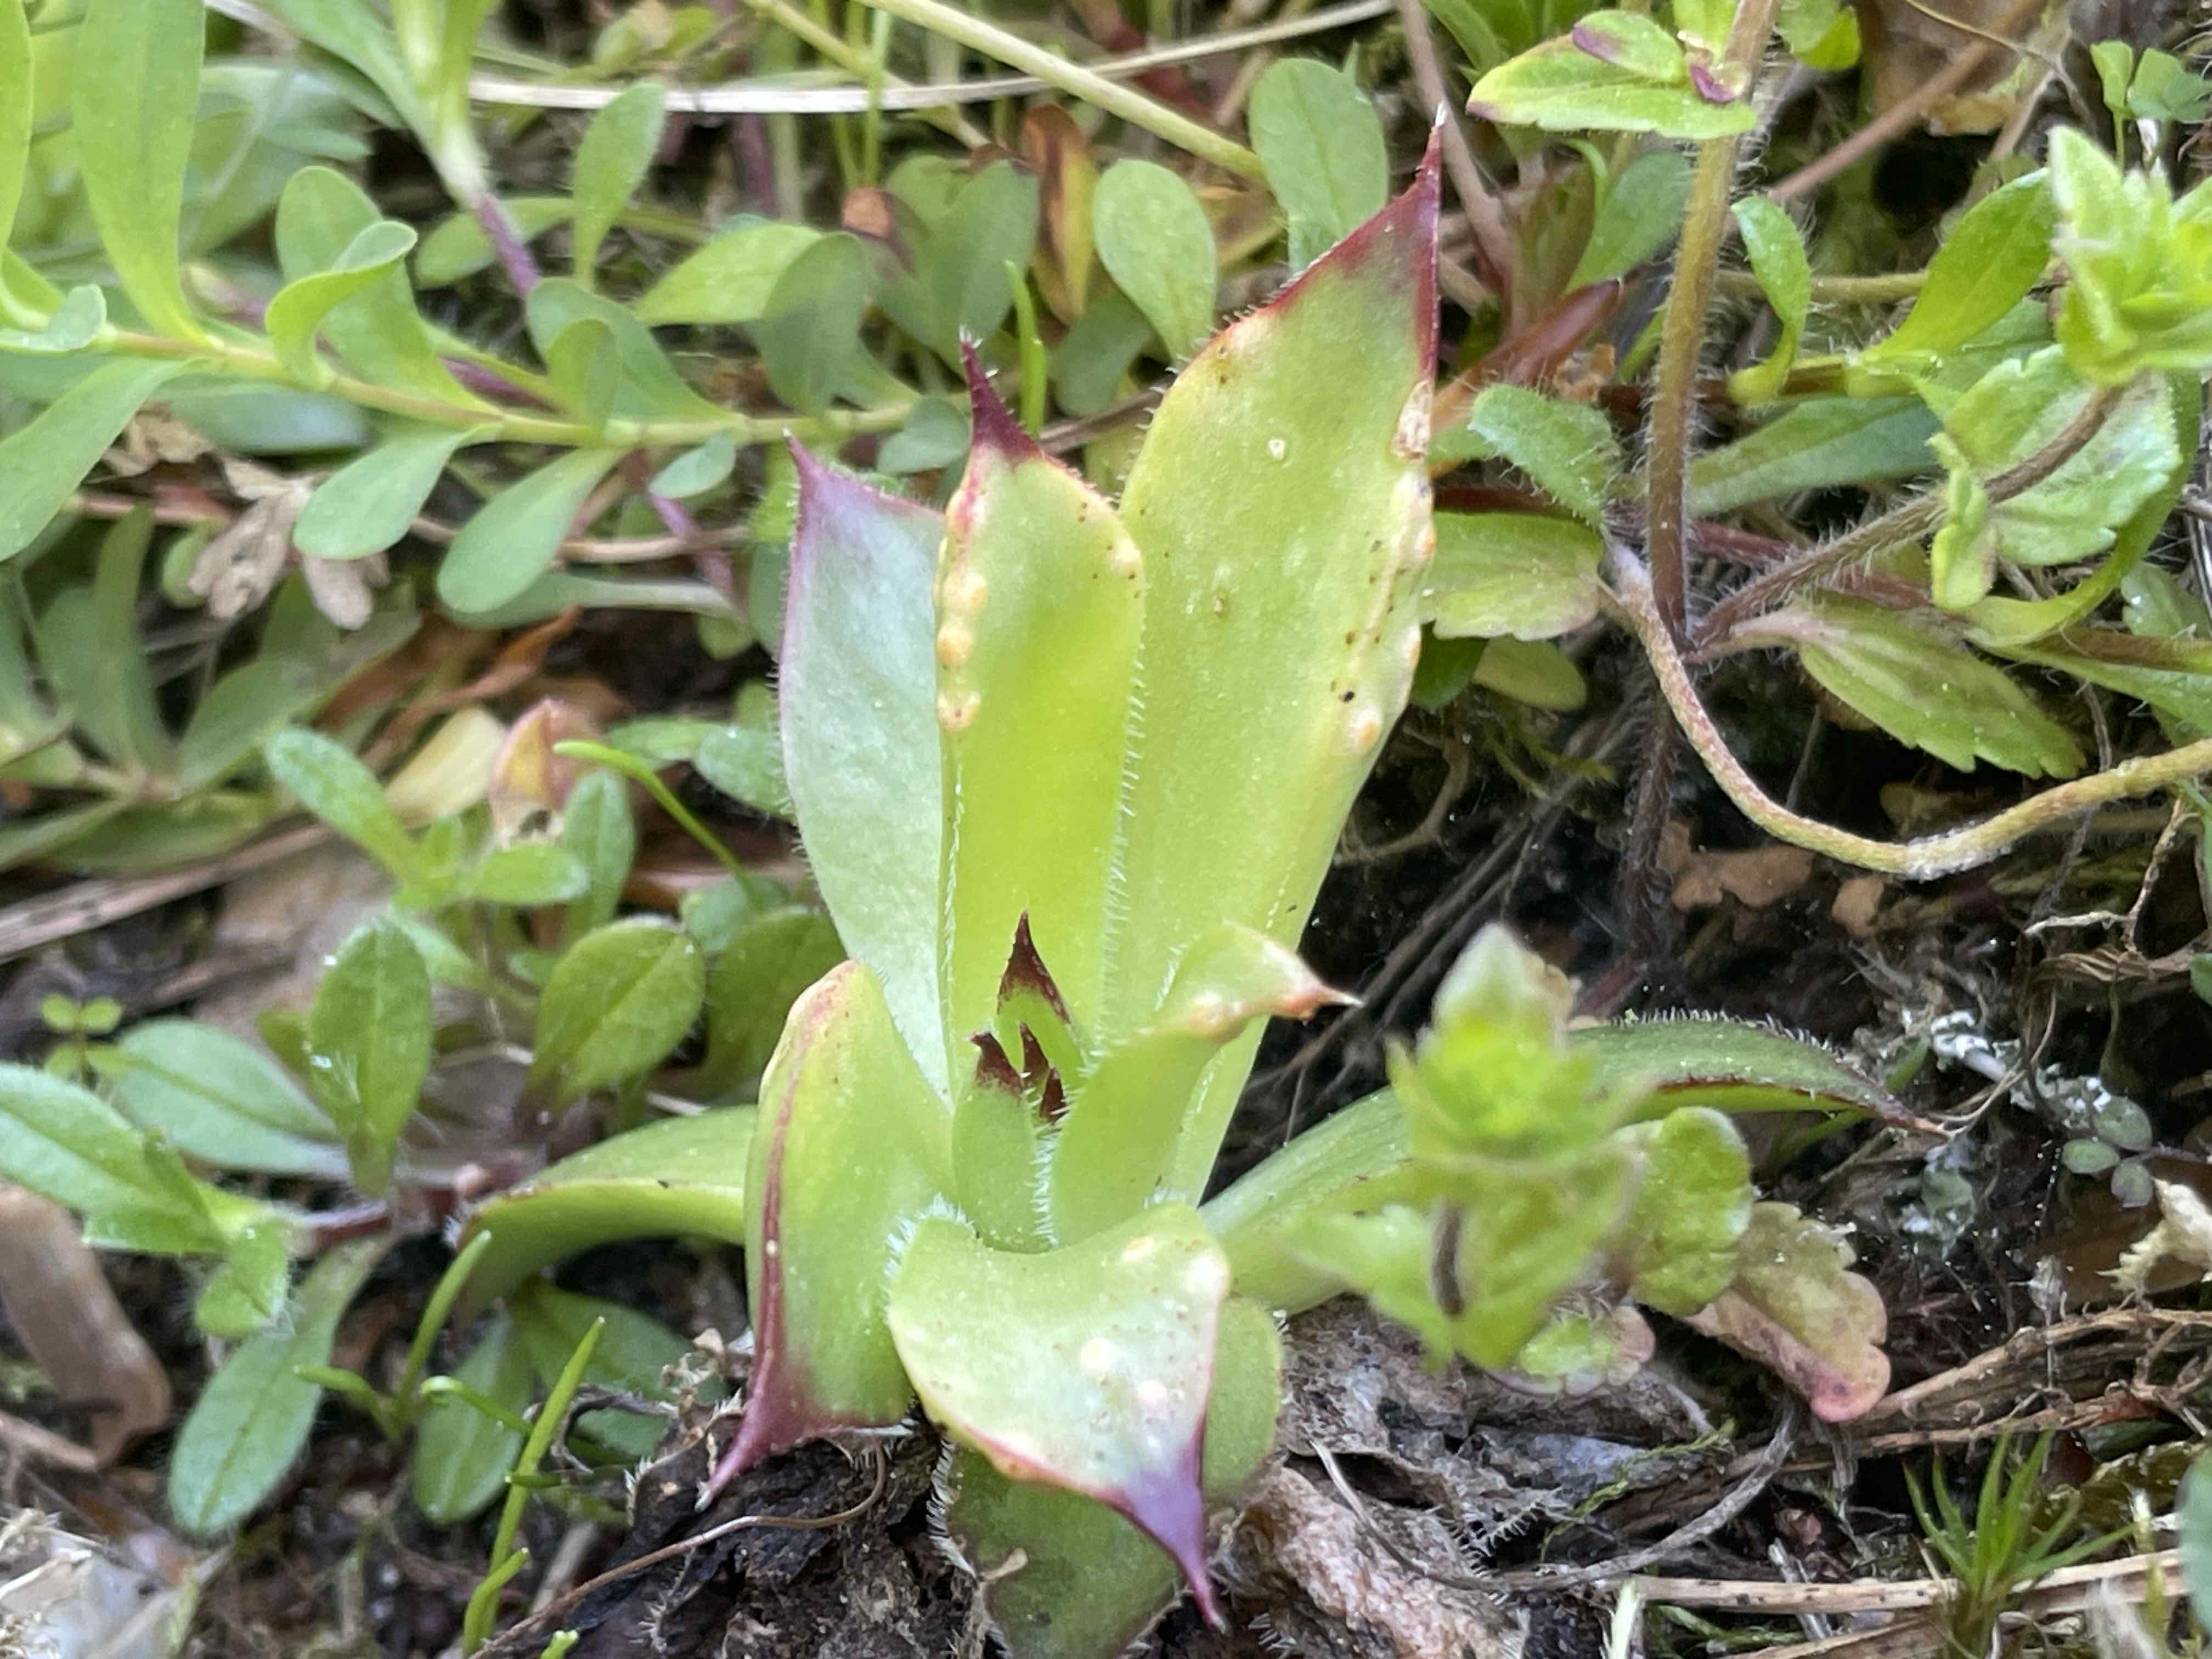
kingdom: Fungi
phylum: Basidiomycota
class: Pucciniomycetes
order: Pucciniales
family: Pucciniaceae
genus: Endophyllum
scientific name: Endophyllum sempervivi
